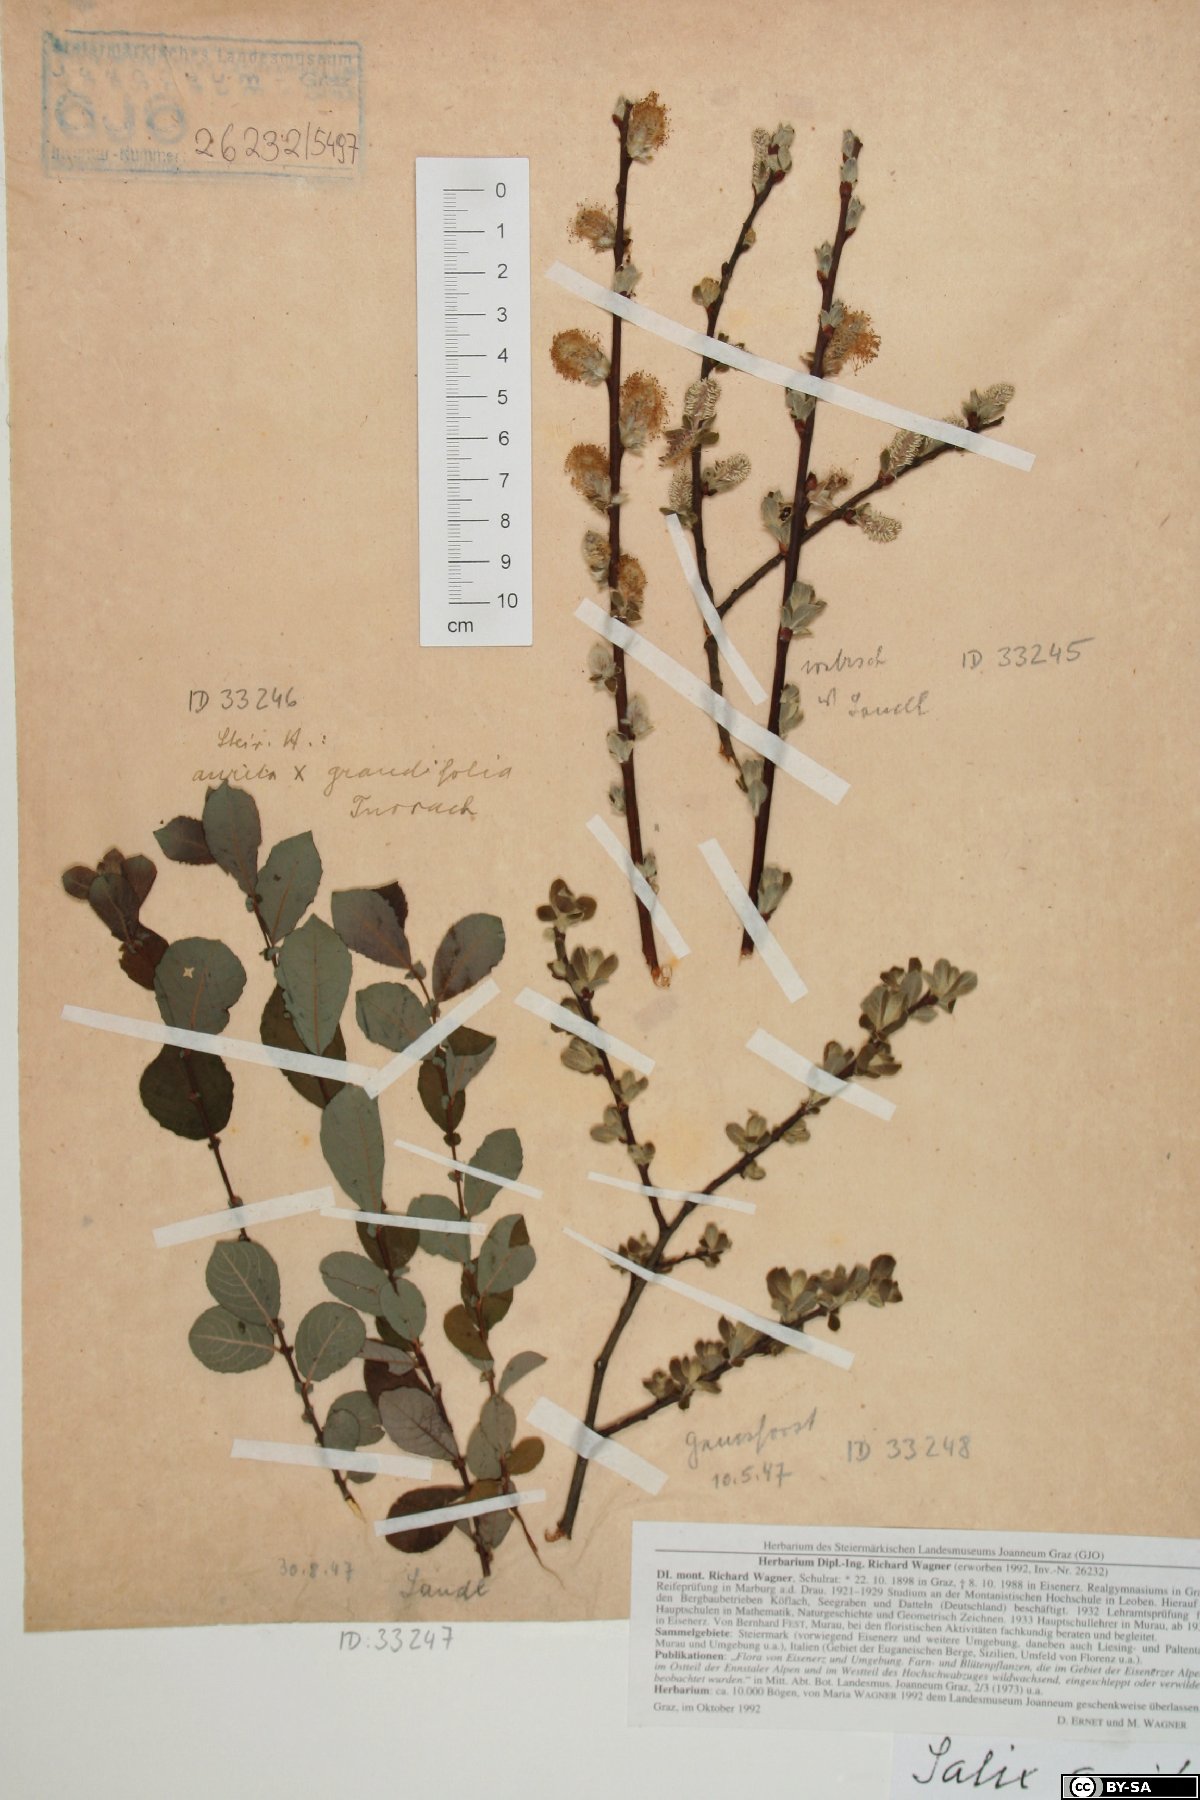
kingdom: Plantae
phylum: Tracheophyta
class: Magnoliopsida
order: Malpighiales
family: Salicaceae
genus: Salix
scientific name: Salix aurita
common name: Eared willow
